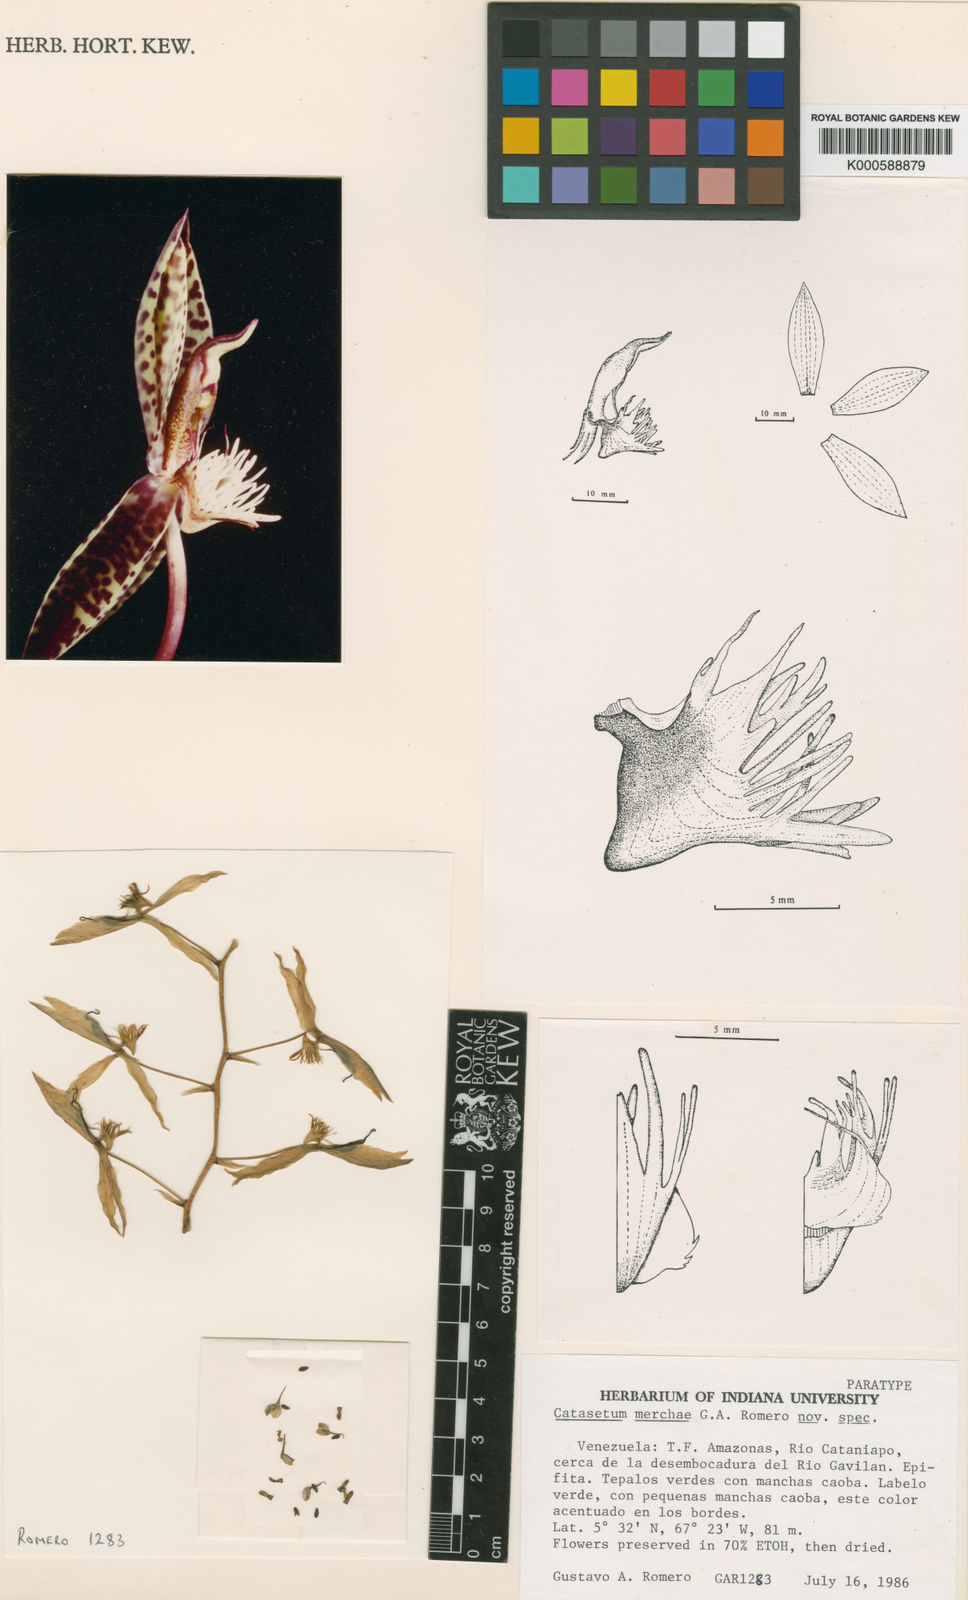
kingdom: Plantae
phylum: Tracheophyta
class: Liliopsida
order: Asparagales
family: Orchidaceae
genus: Catasetum
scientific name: Catasetum merchae
